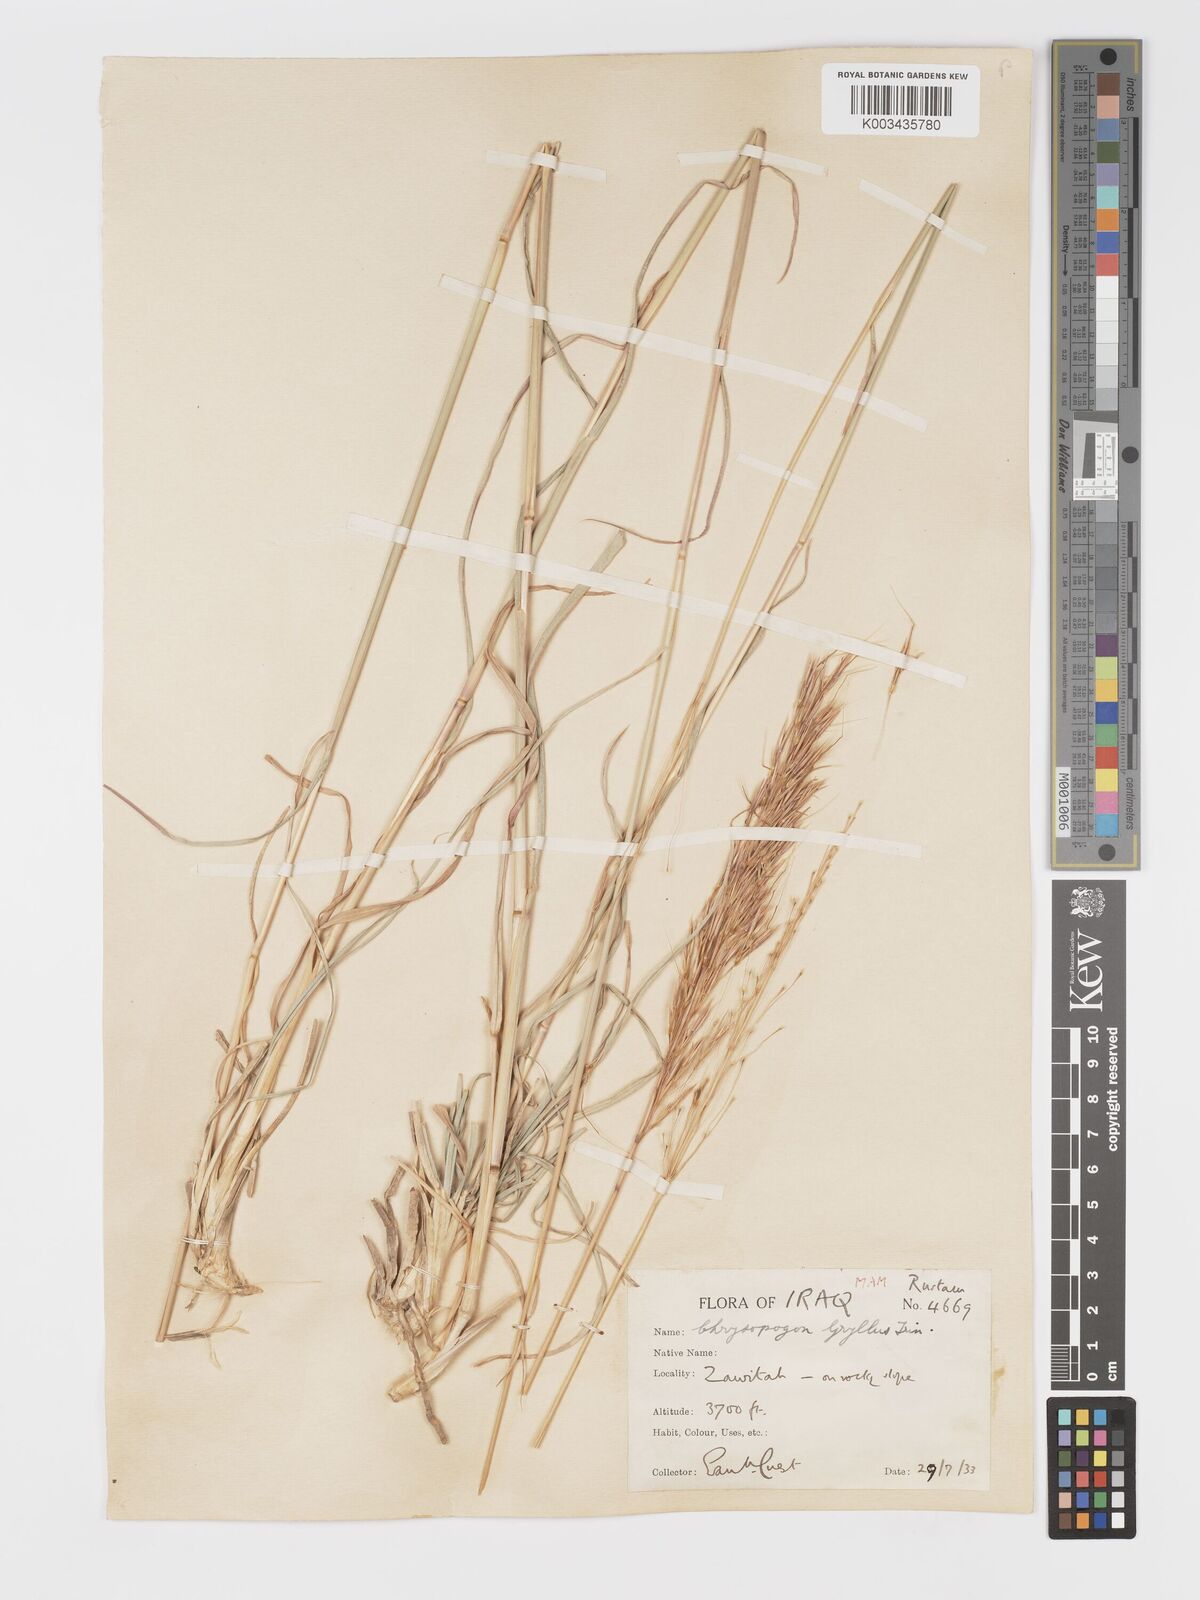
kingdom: Plantae
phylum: Tracheophyta
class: Liliopsida
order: Poales
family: Poaceae
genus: Chrysopogon
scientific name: Chrysopogon gryllus
